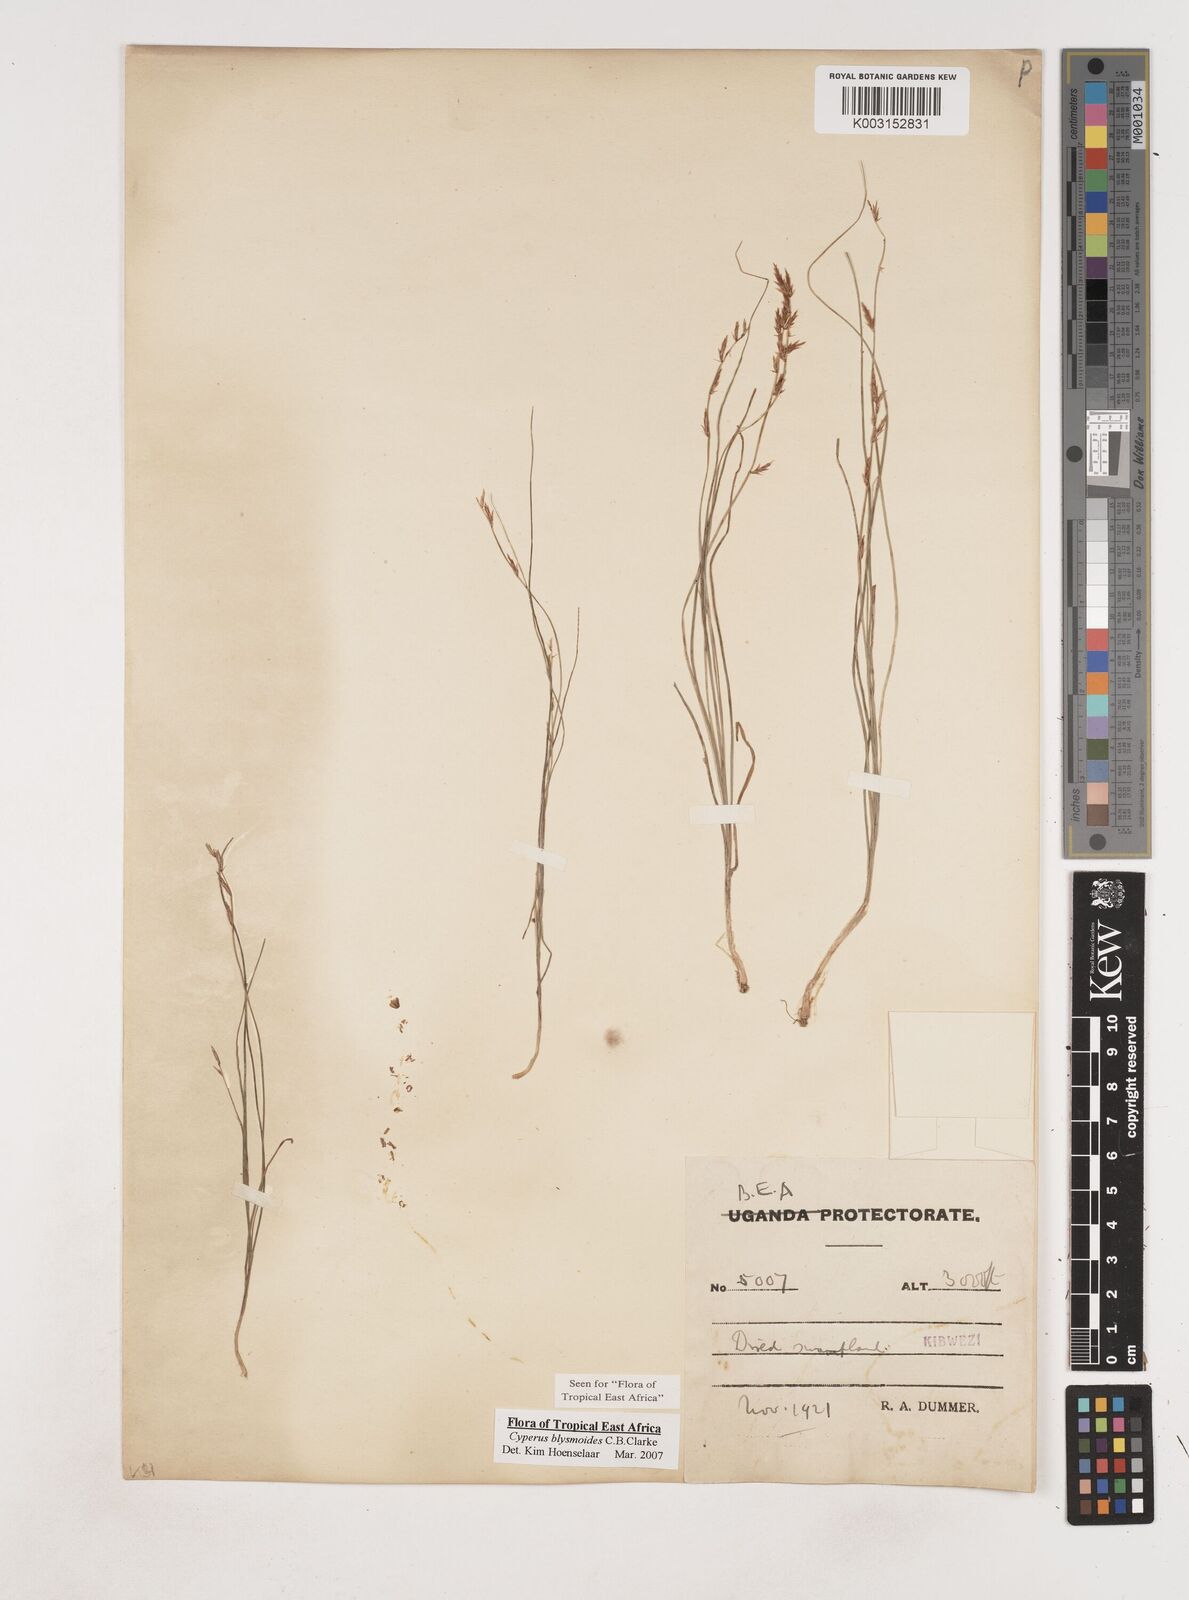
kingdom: Plantae
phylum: Tracheophyta
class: Liliopsida
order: Poales
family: Cyperaceae
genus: Cyperus
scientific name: Cyperus blysmoides
